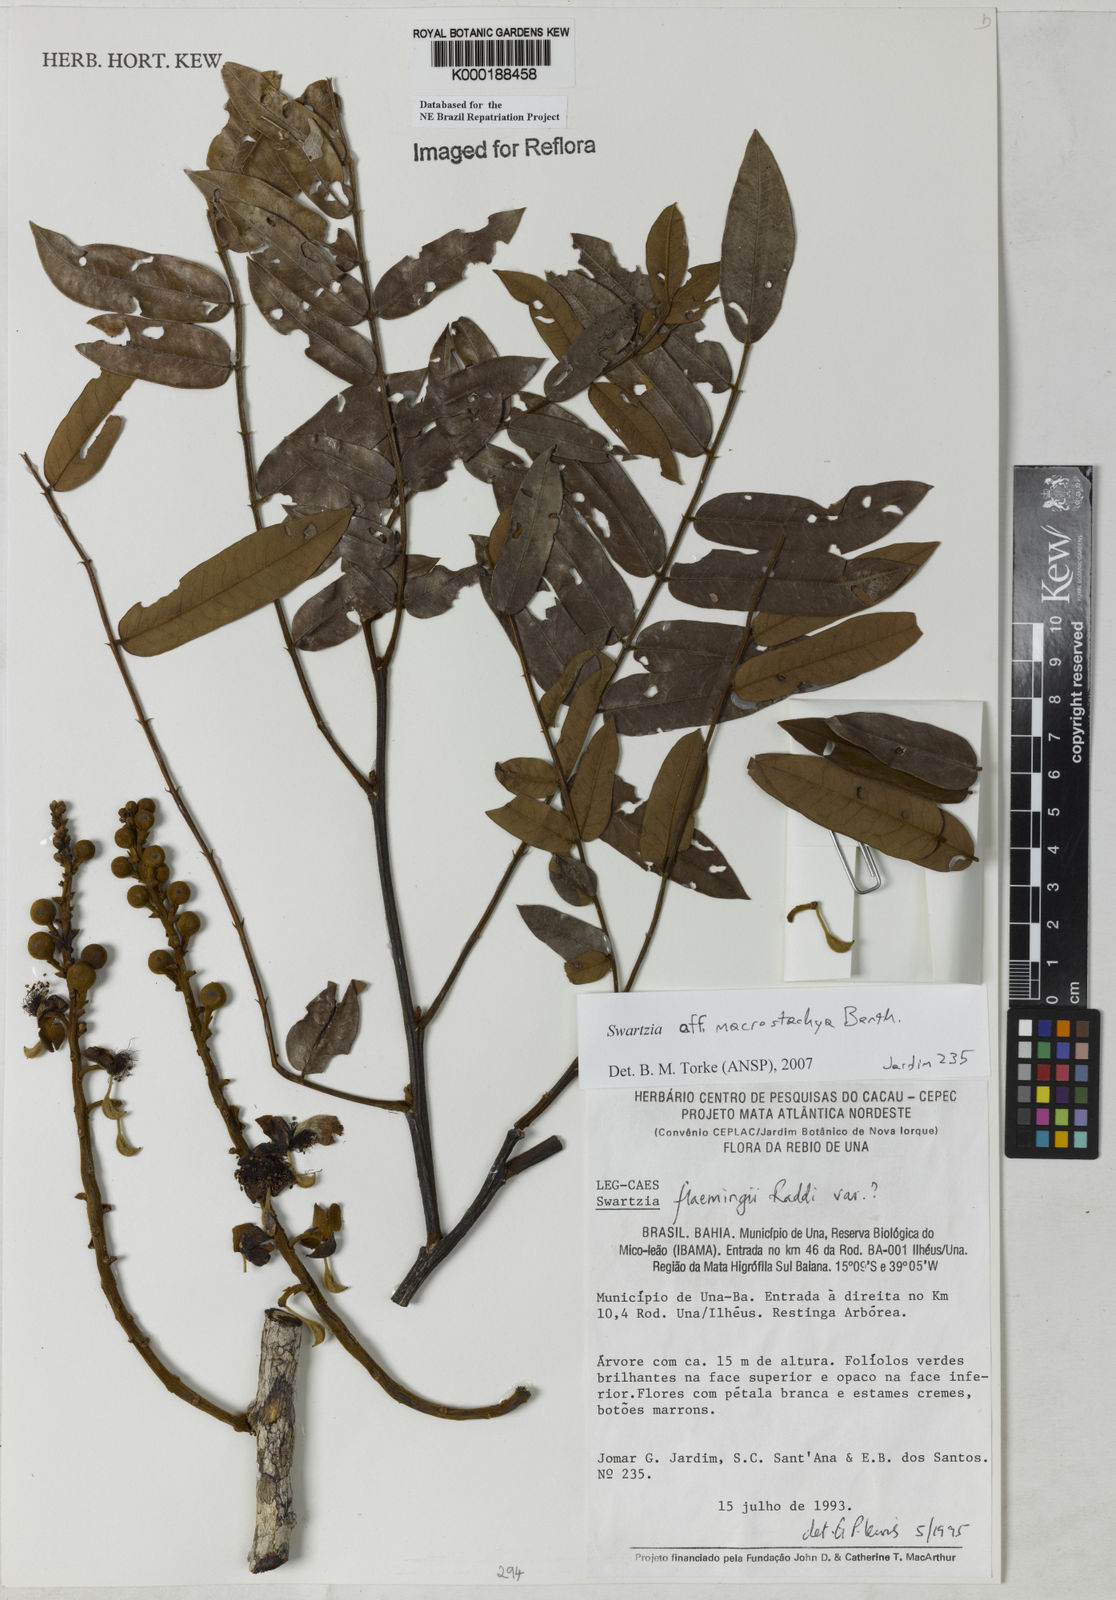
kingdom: Plantae
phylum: Tracheophyta
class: Magnoliopsida
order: Fabales
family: Fabaceae
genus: Swartzia
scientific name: Swartzia flaemingii
